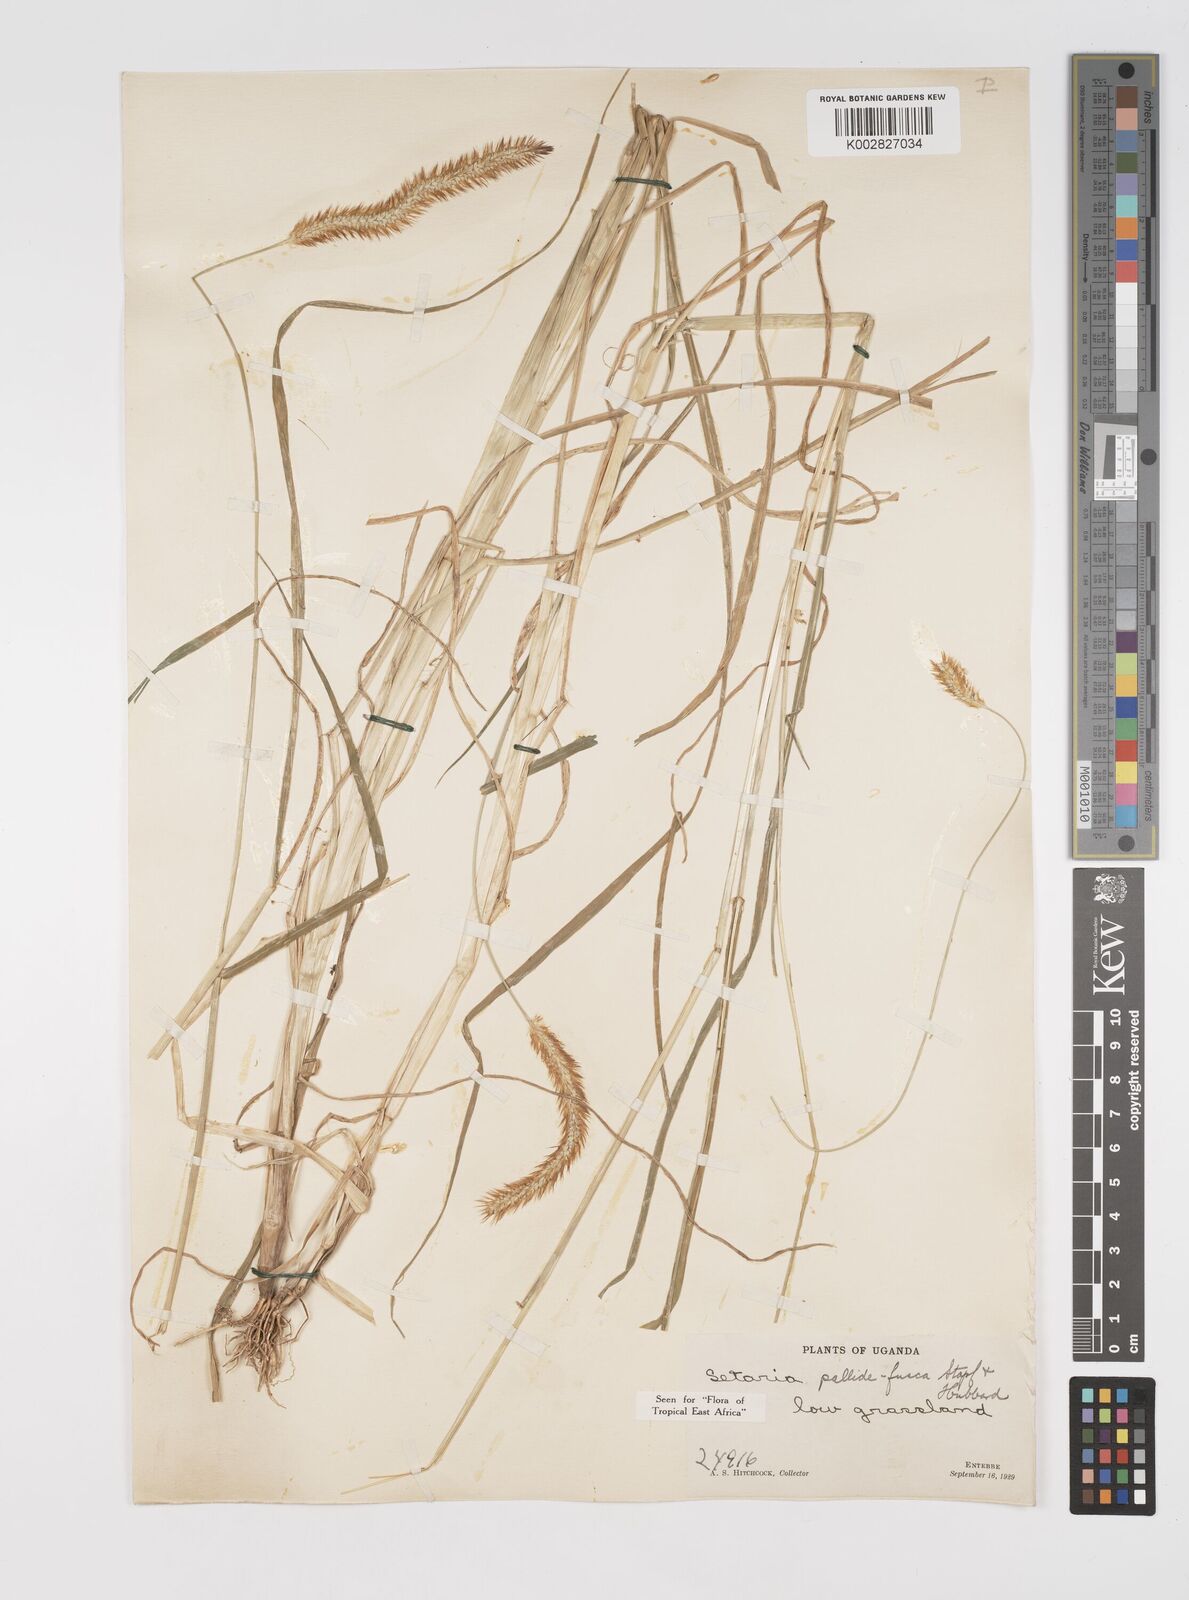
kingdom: Plantae
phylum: Tracheophyta
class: Liliopsida
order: Poales
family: Poaceae
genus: Setaria
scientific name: Setaria pumila
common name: Yellow bristle-grass
